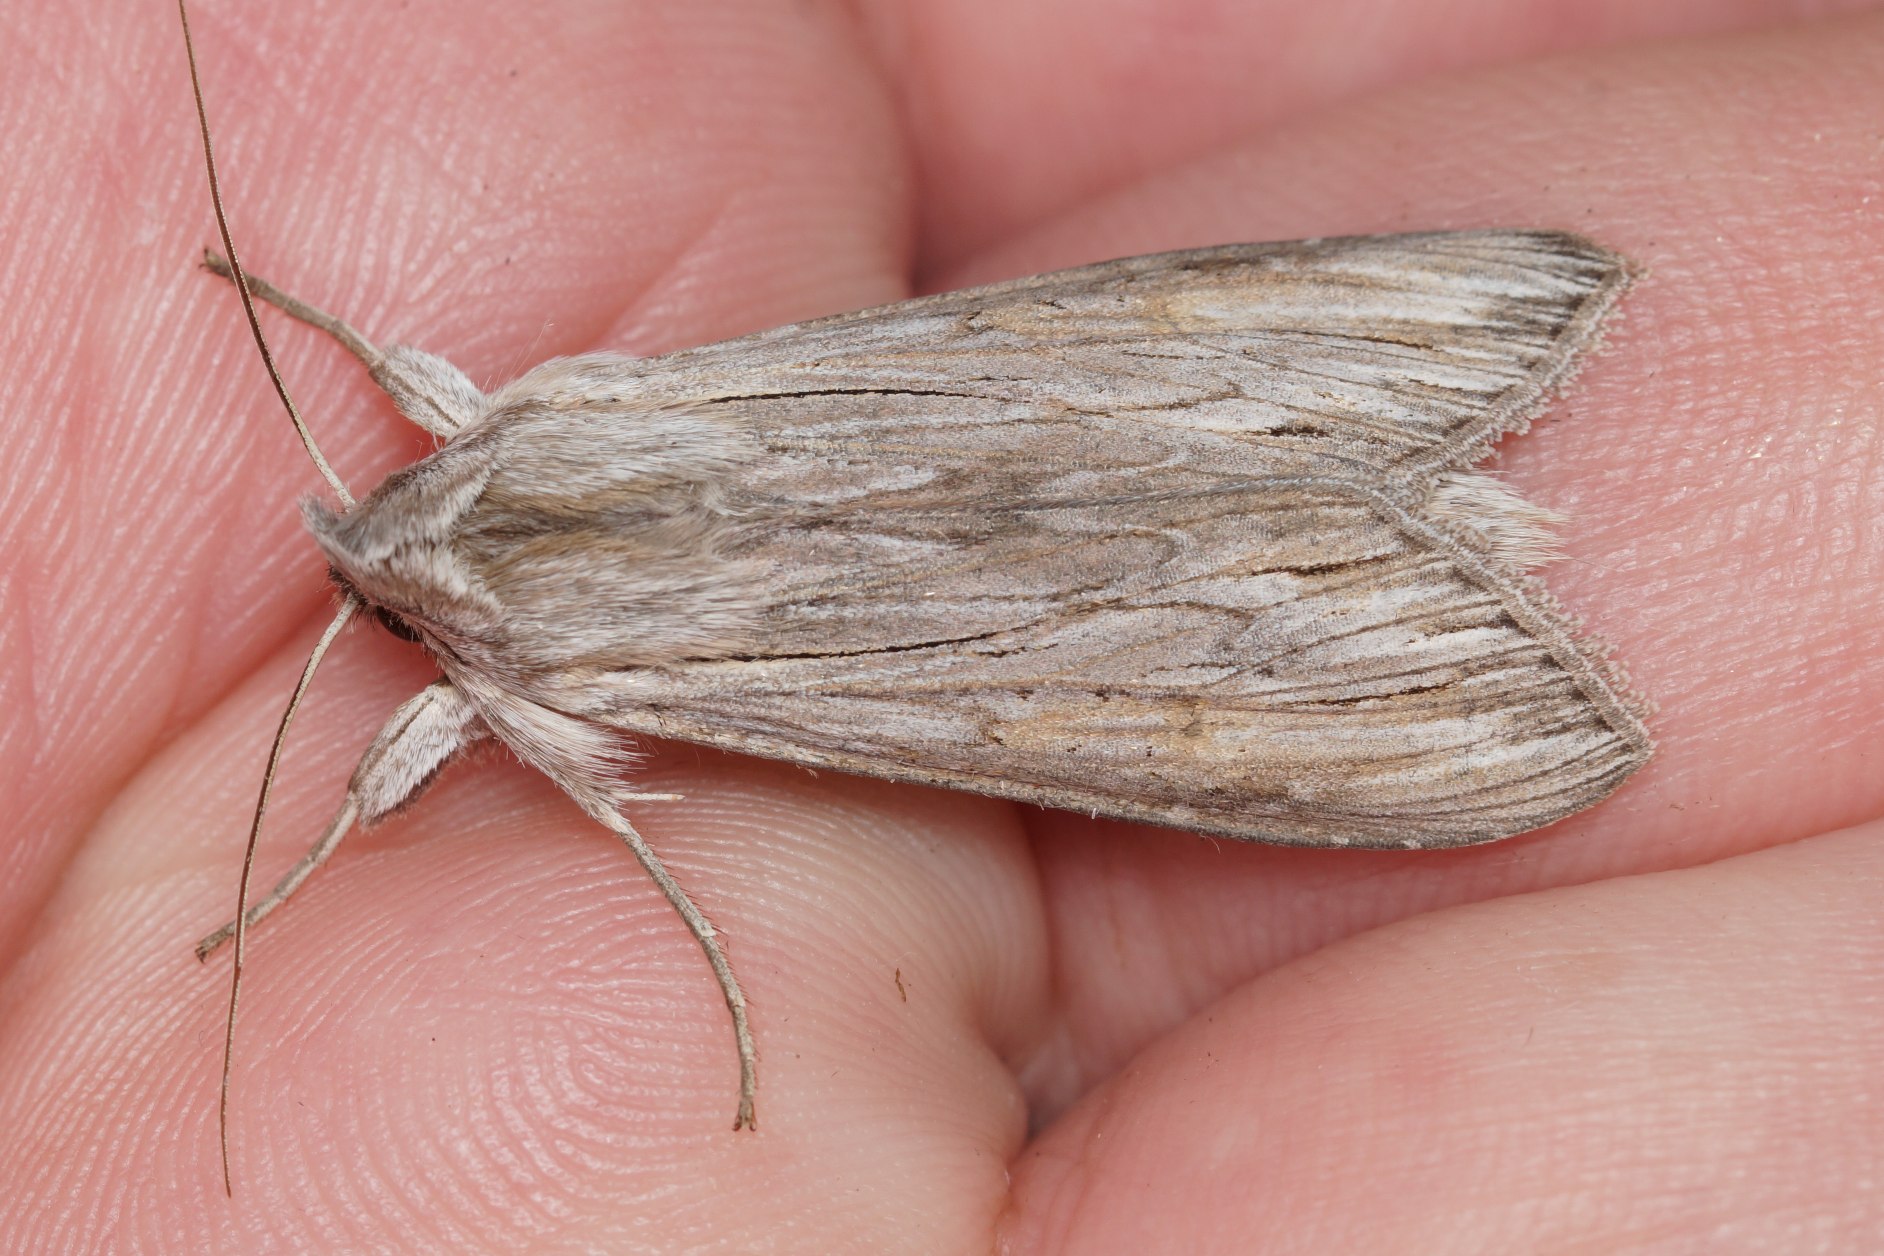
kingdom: Animalia
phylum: Arthropoda
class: Insecta
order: Lepidoptera
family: Noctuidae
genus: Cucullia
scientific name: Cucullia umbratica
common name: Grå hætteugle
